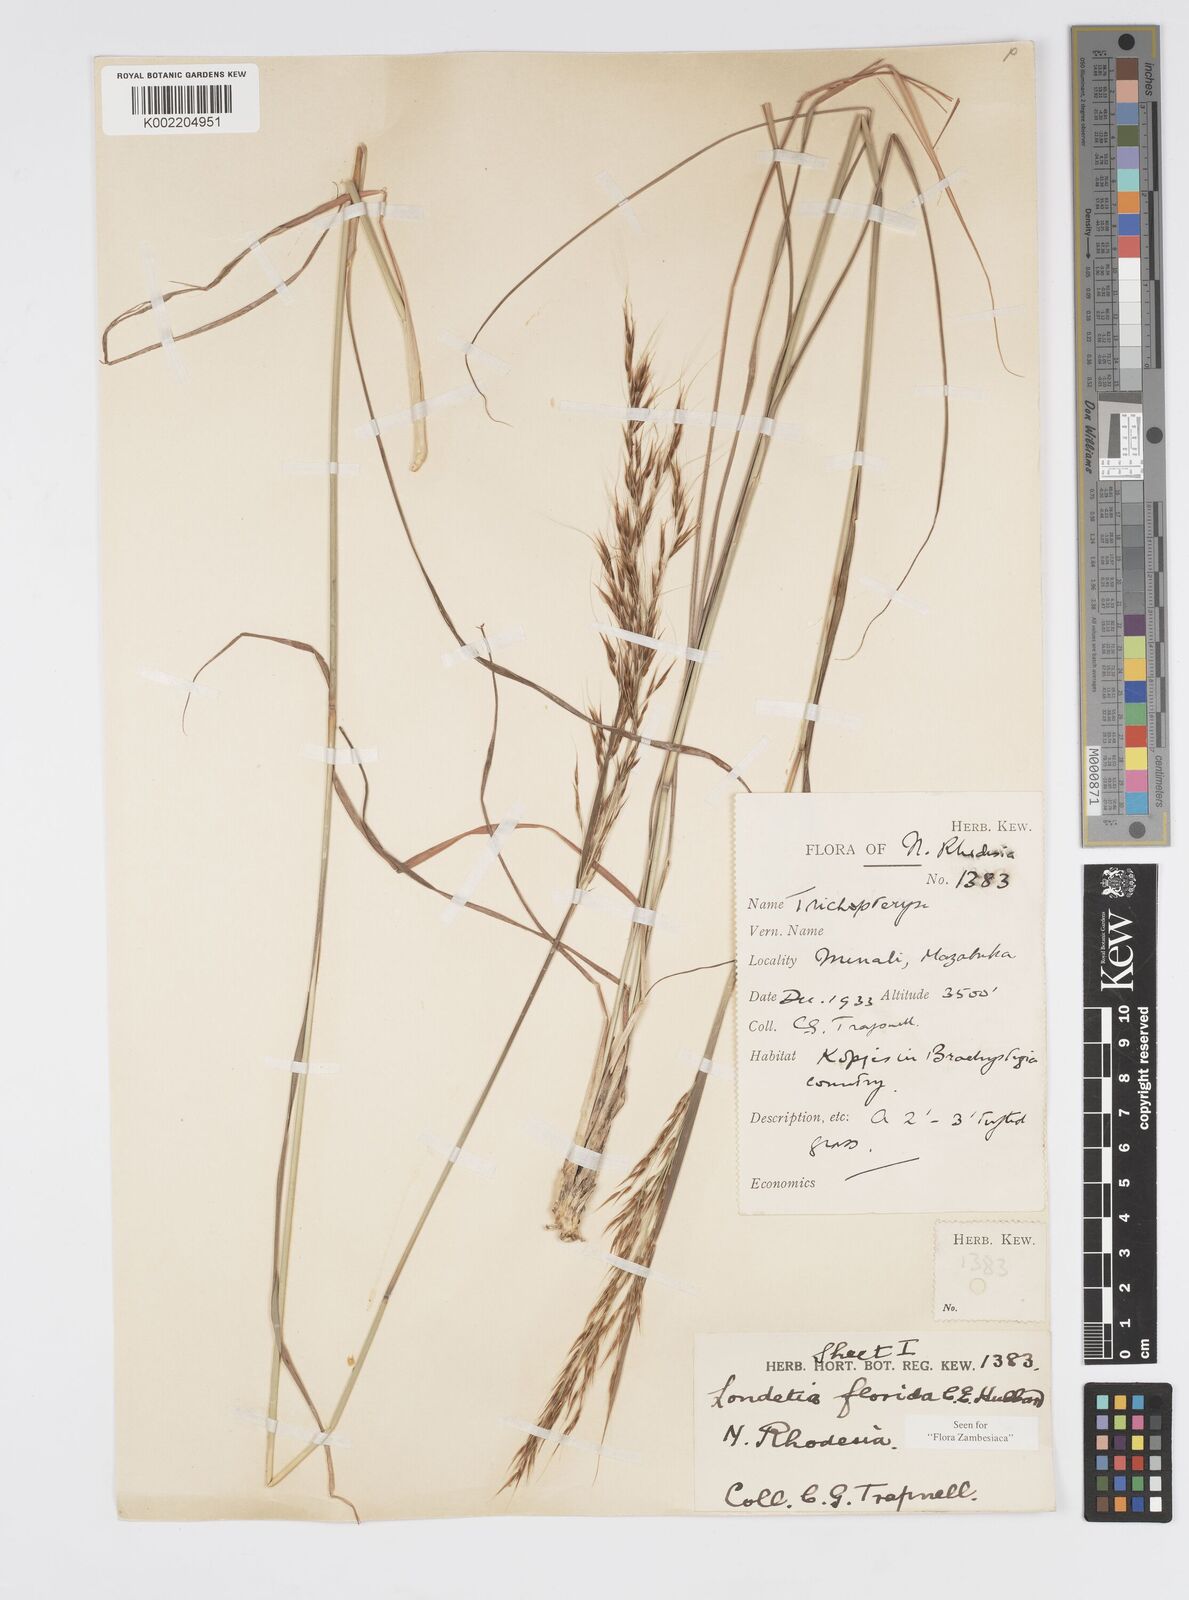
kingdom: Plantae
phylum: Tracheophyta
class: Liliopsida
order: Poales
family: Poaceae
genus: Loudetia
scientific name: Loudetia flavida
